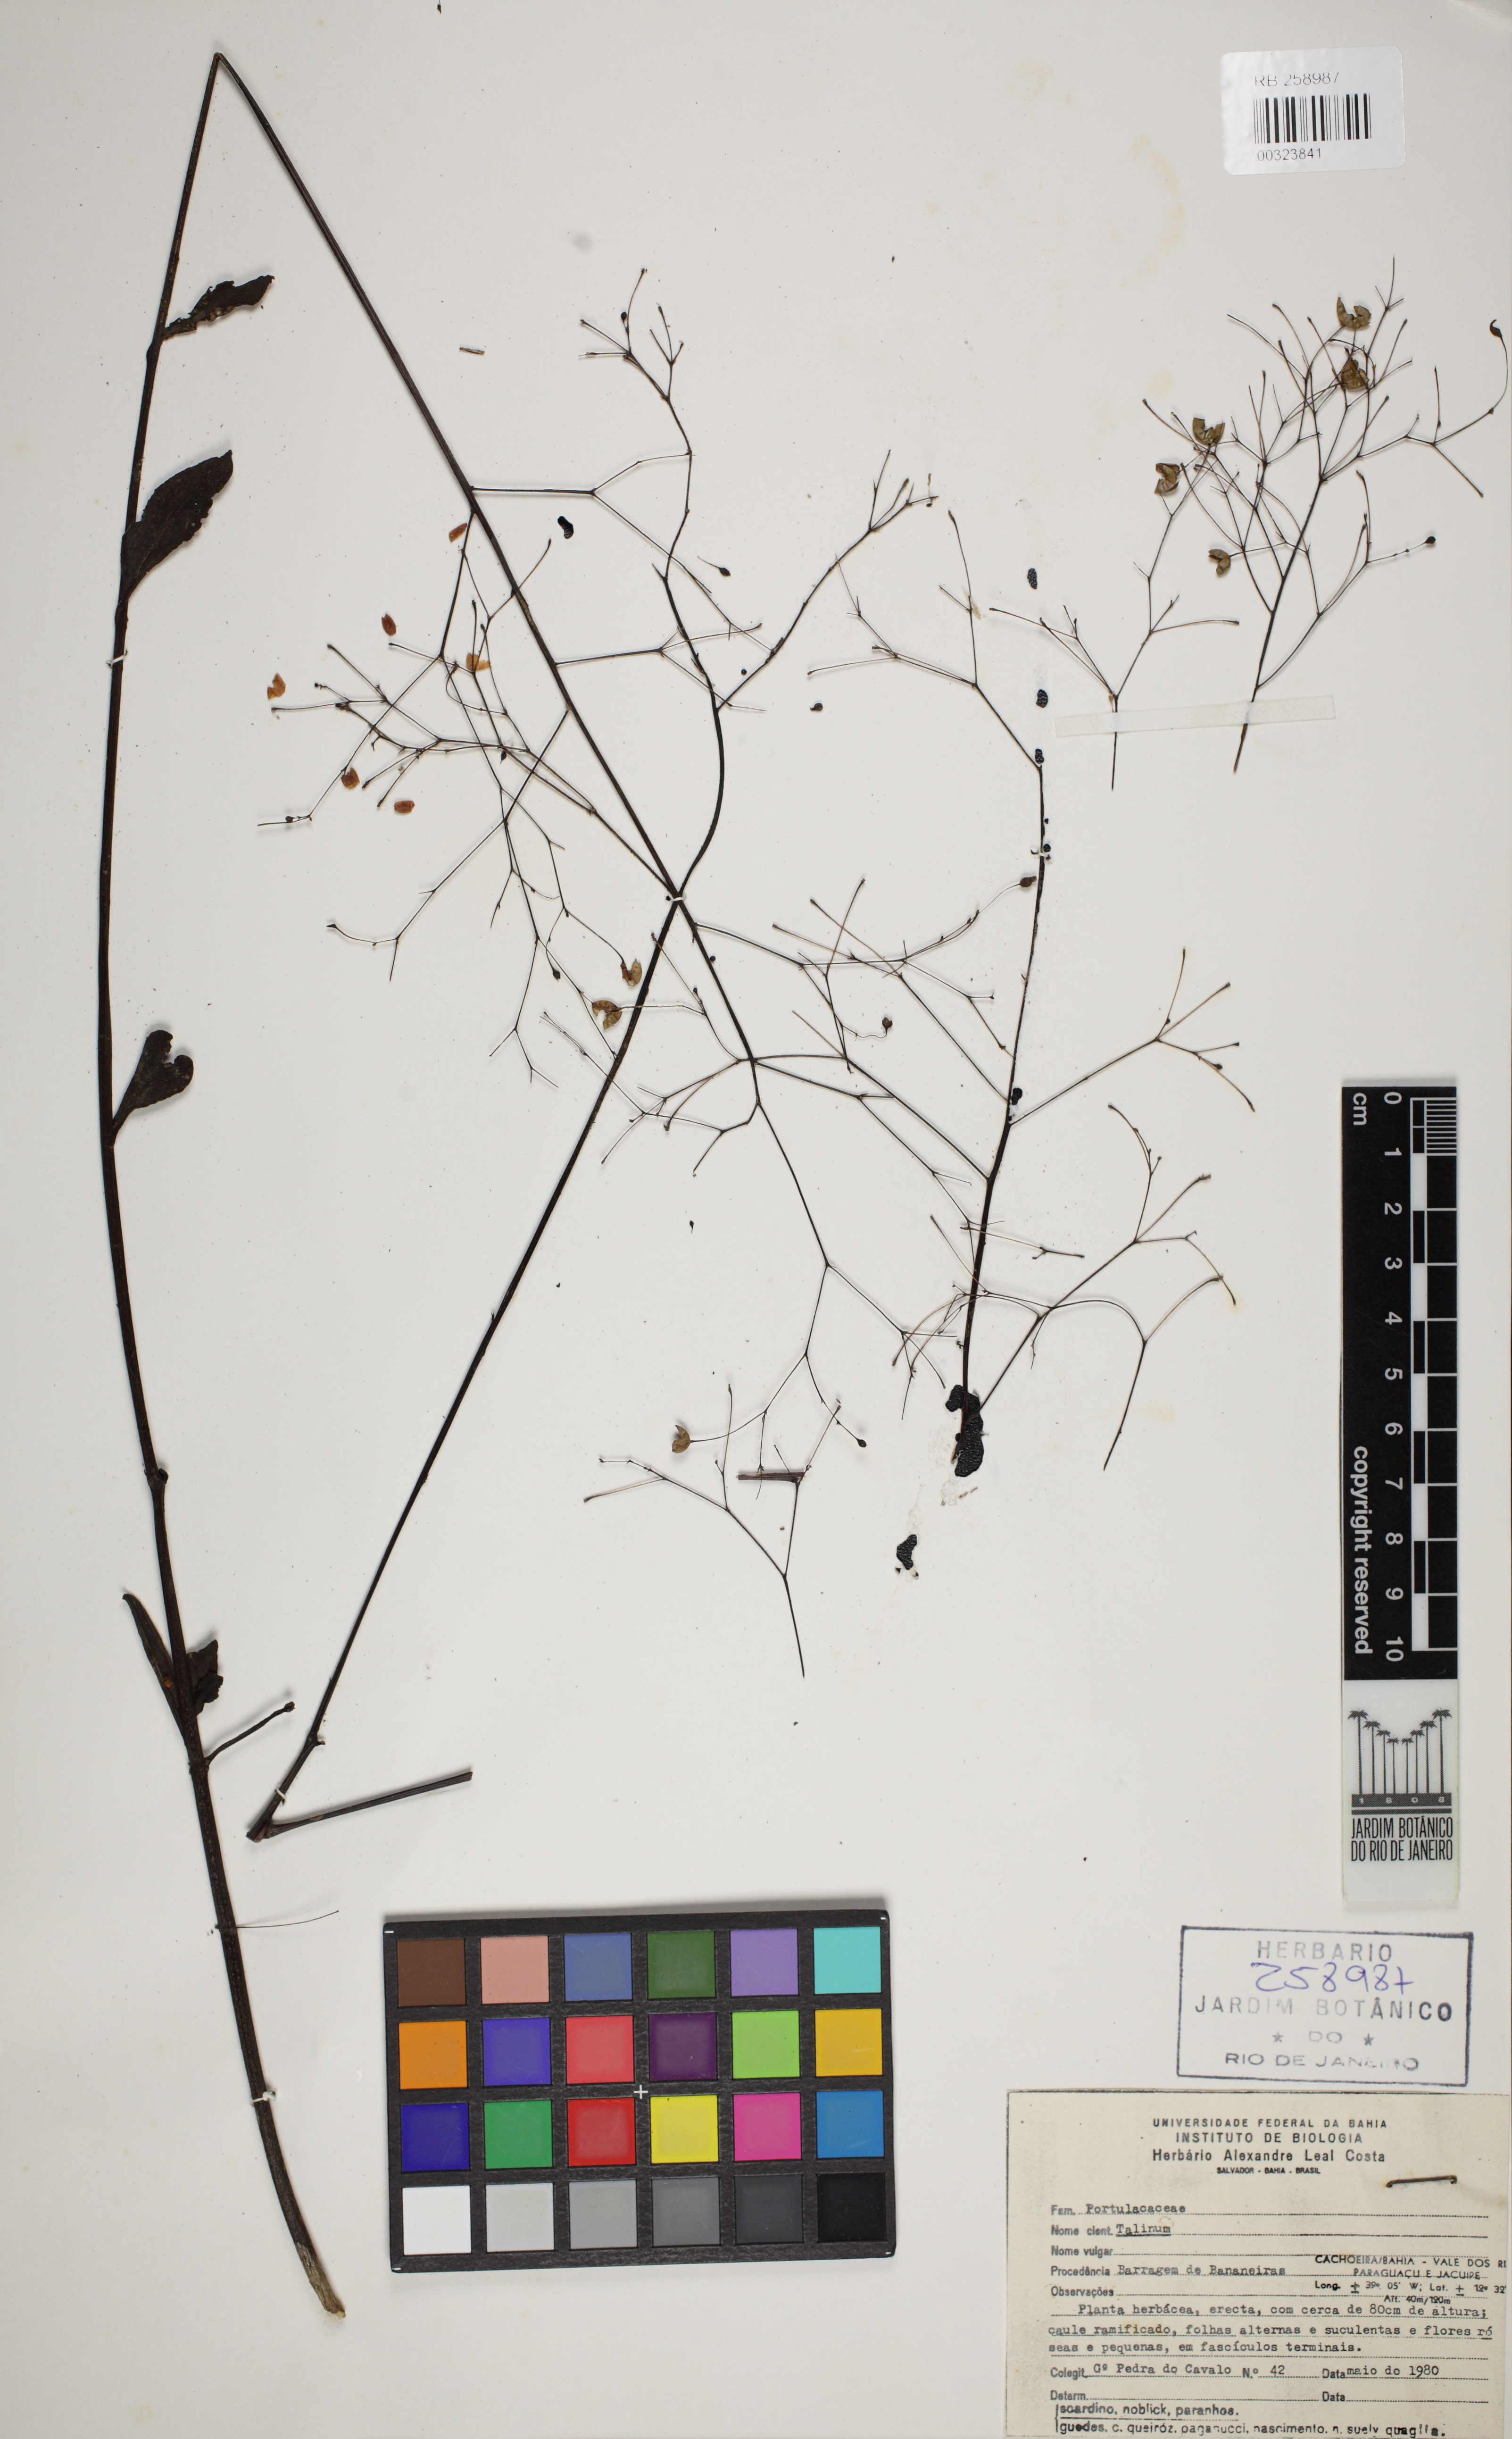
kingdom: Plantae
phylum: Tracheophyta
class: Magnoliopsida
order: Caryophyllales
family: Talinaceae
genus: Talinum
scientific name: Talinum
